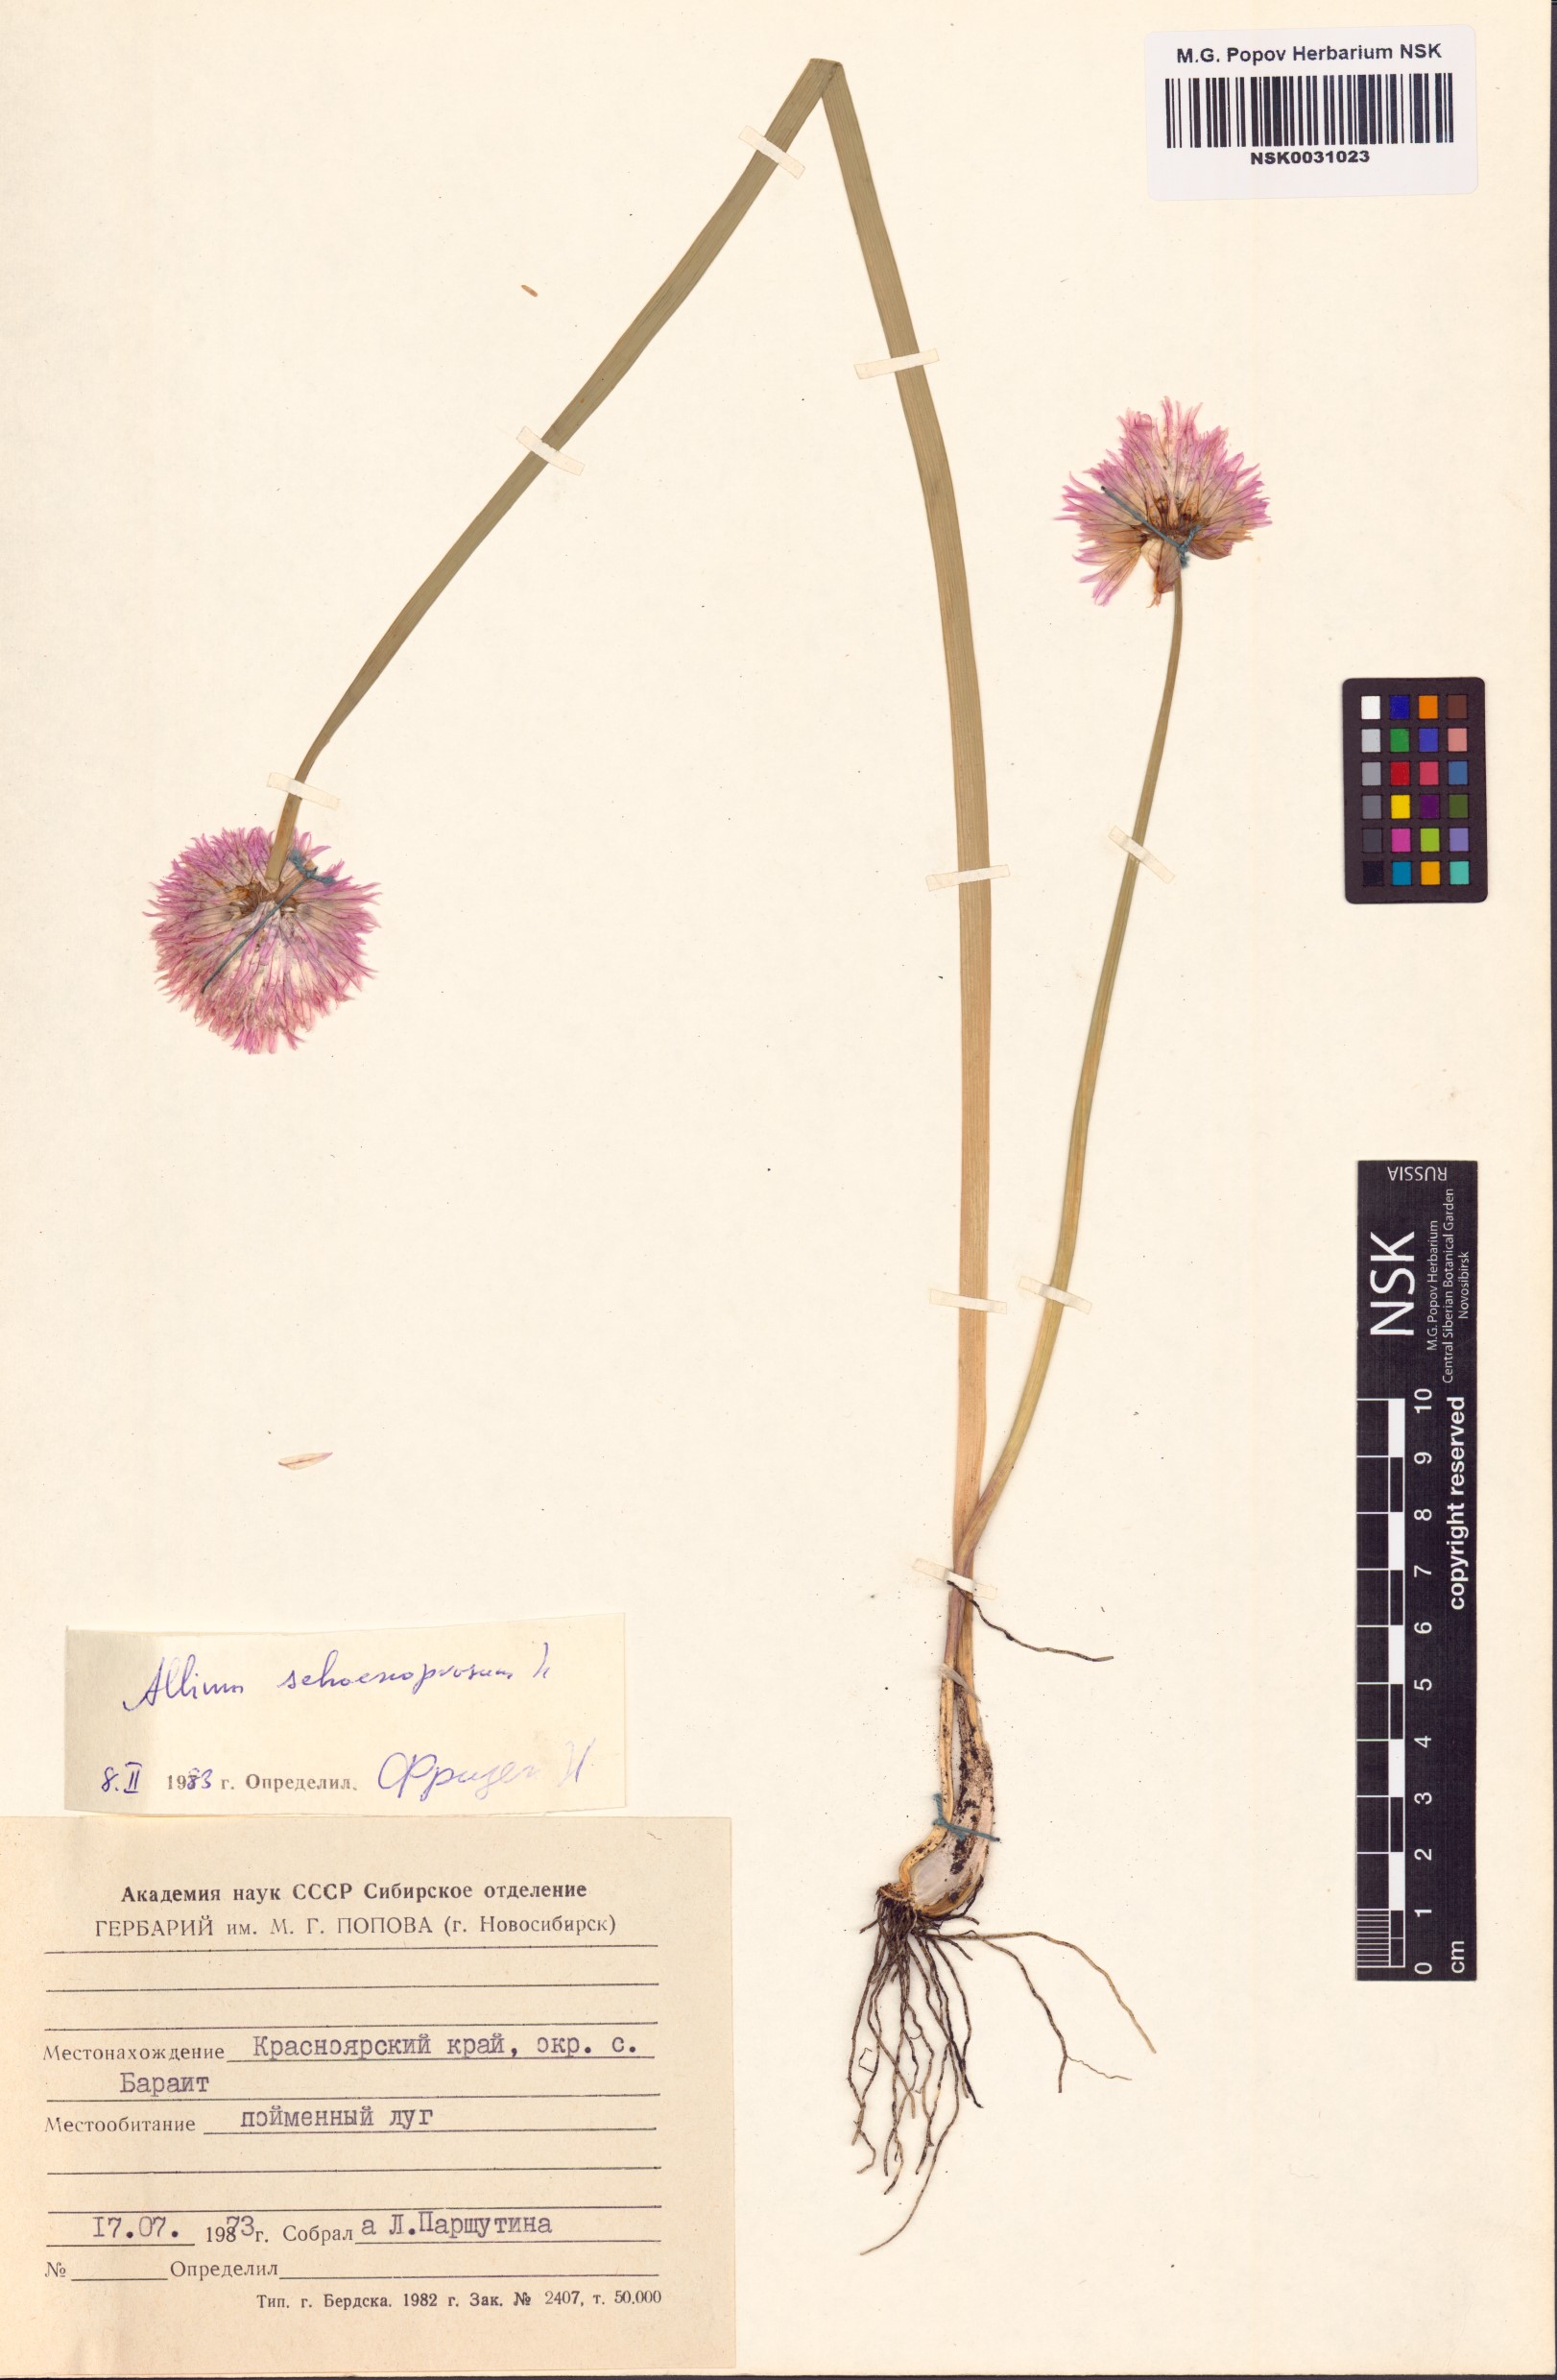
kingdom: Plantae
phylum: Tracheophyta
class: Liliopsida
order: Asparagales
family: Amaryllidaceae
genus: Allium
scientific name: Allium schoenoprasum
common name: Chives
